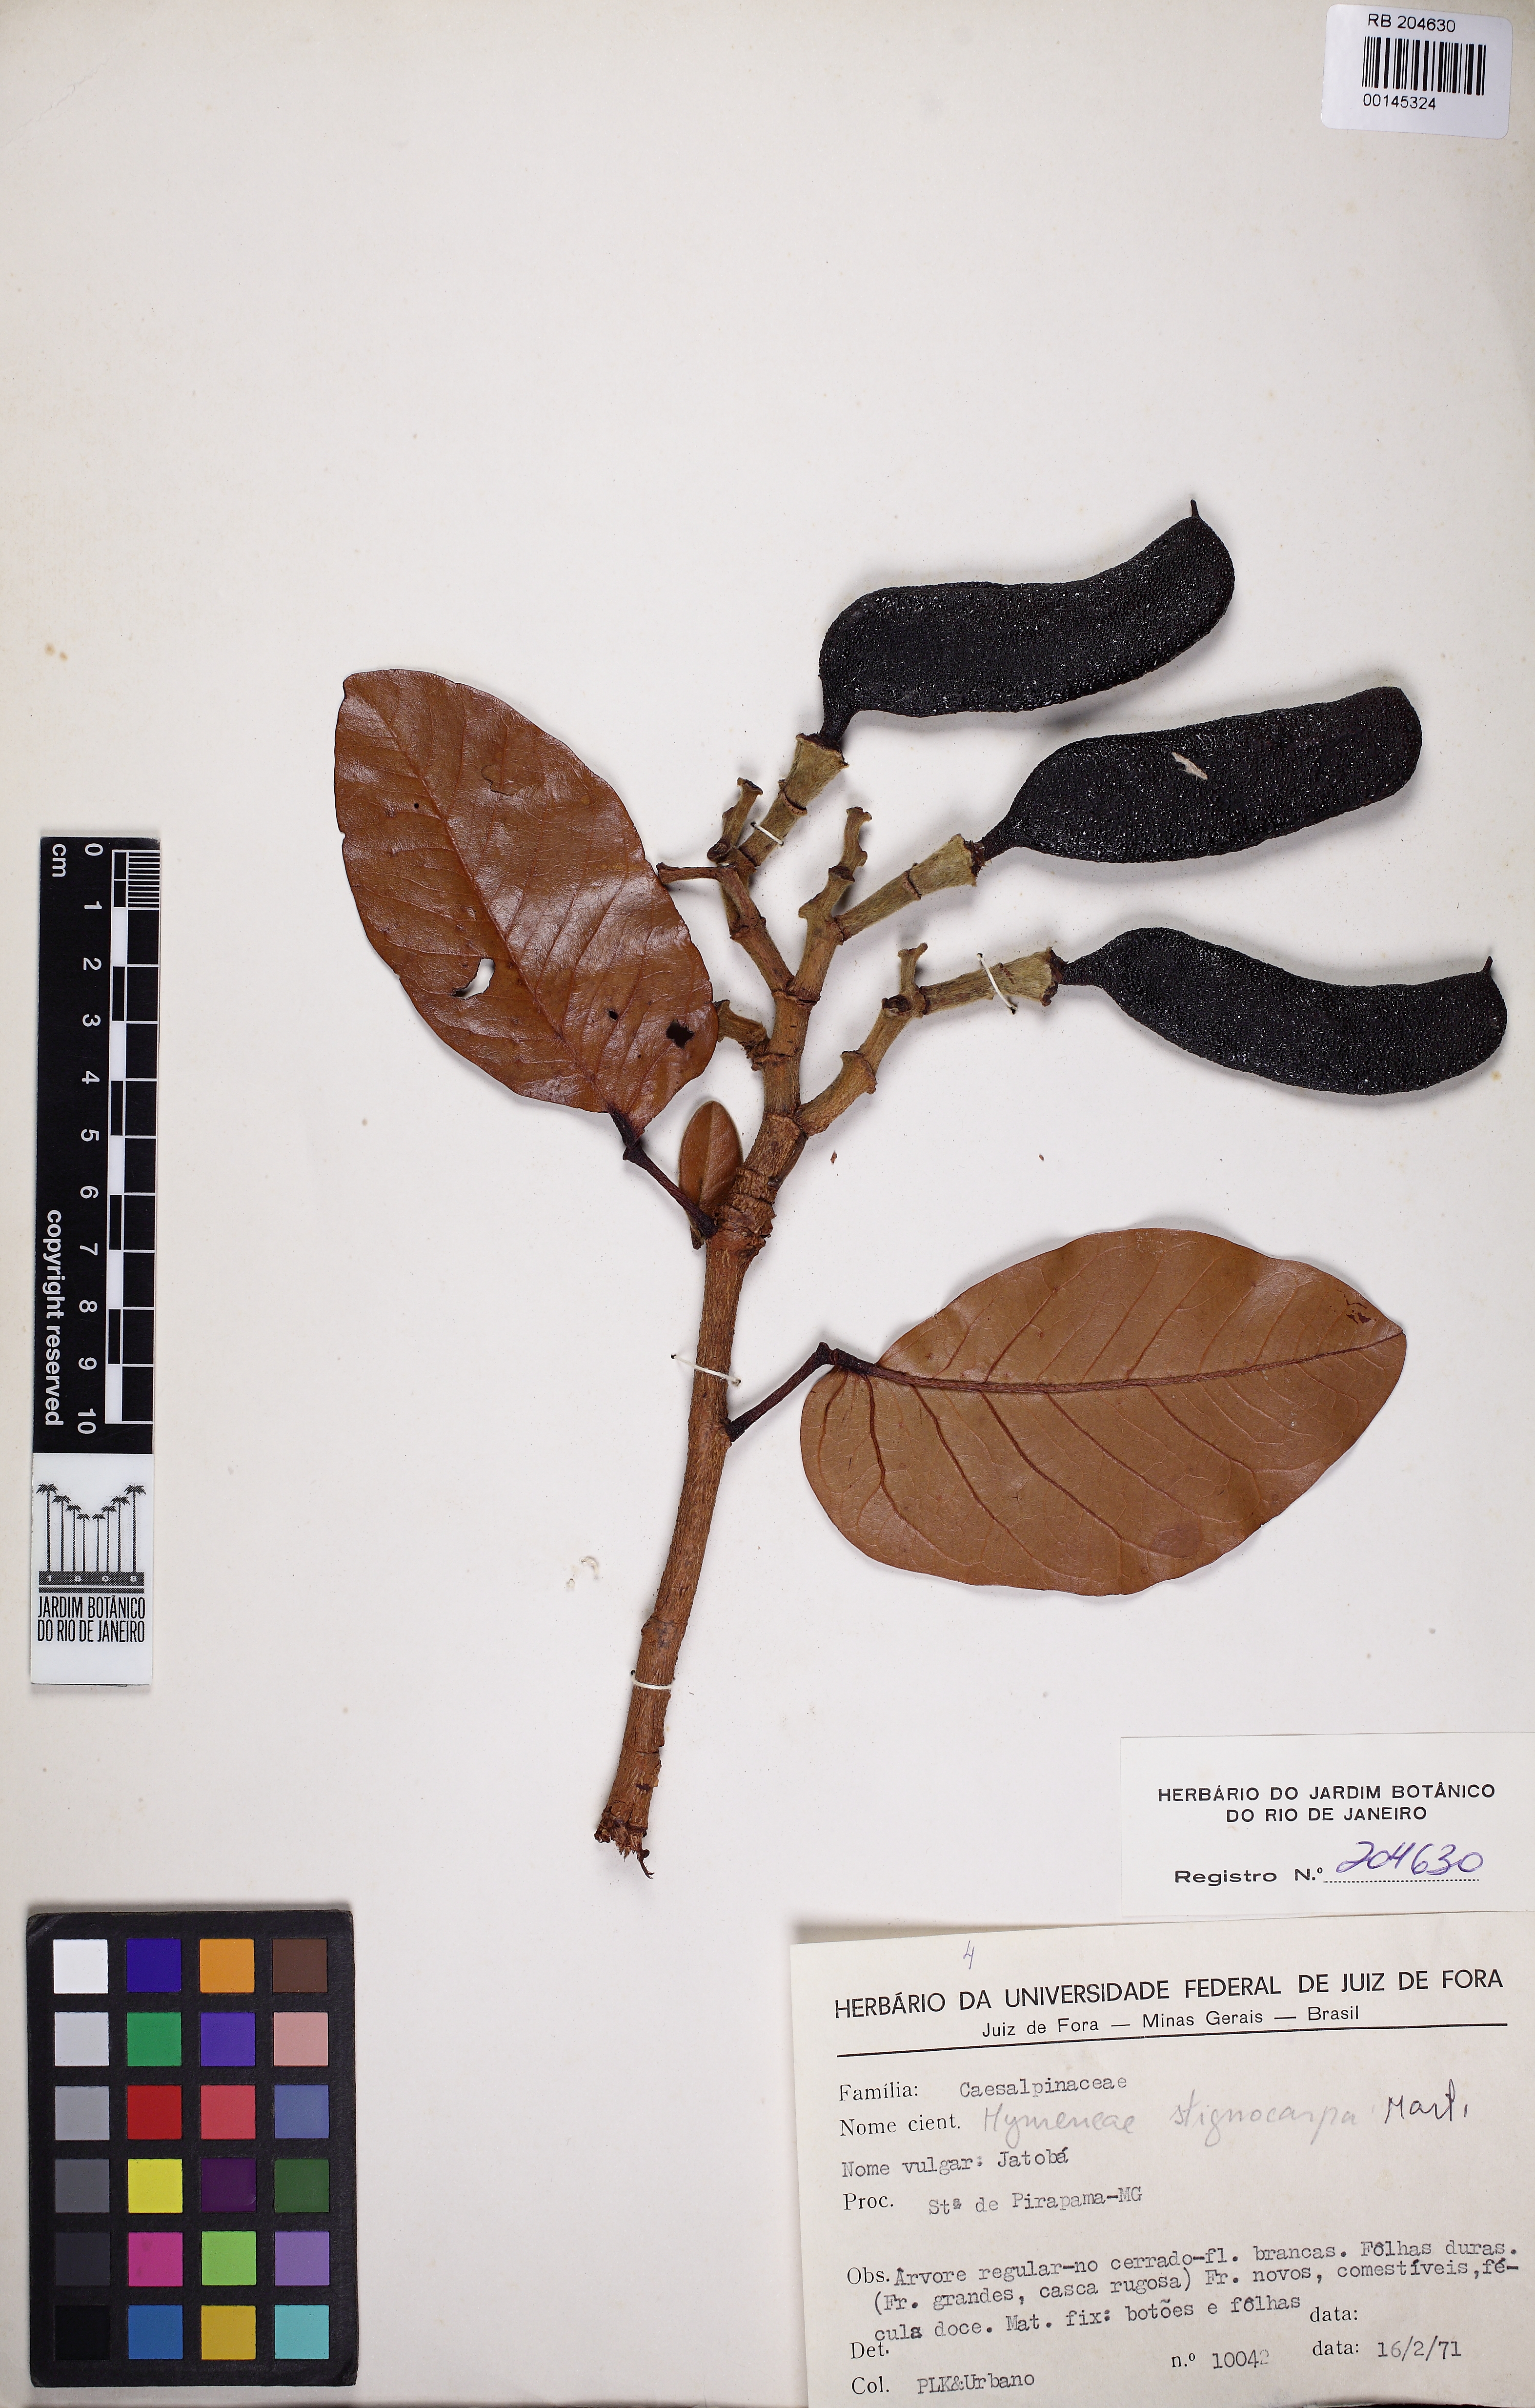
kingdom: Plantae
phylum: Tracheophyta
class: Magnoliopsida
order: Fabales
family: Fabaceae
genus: Hymenaea
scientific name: Hymenaea stigonocarpa
